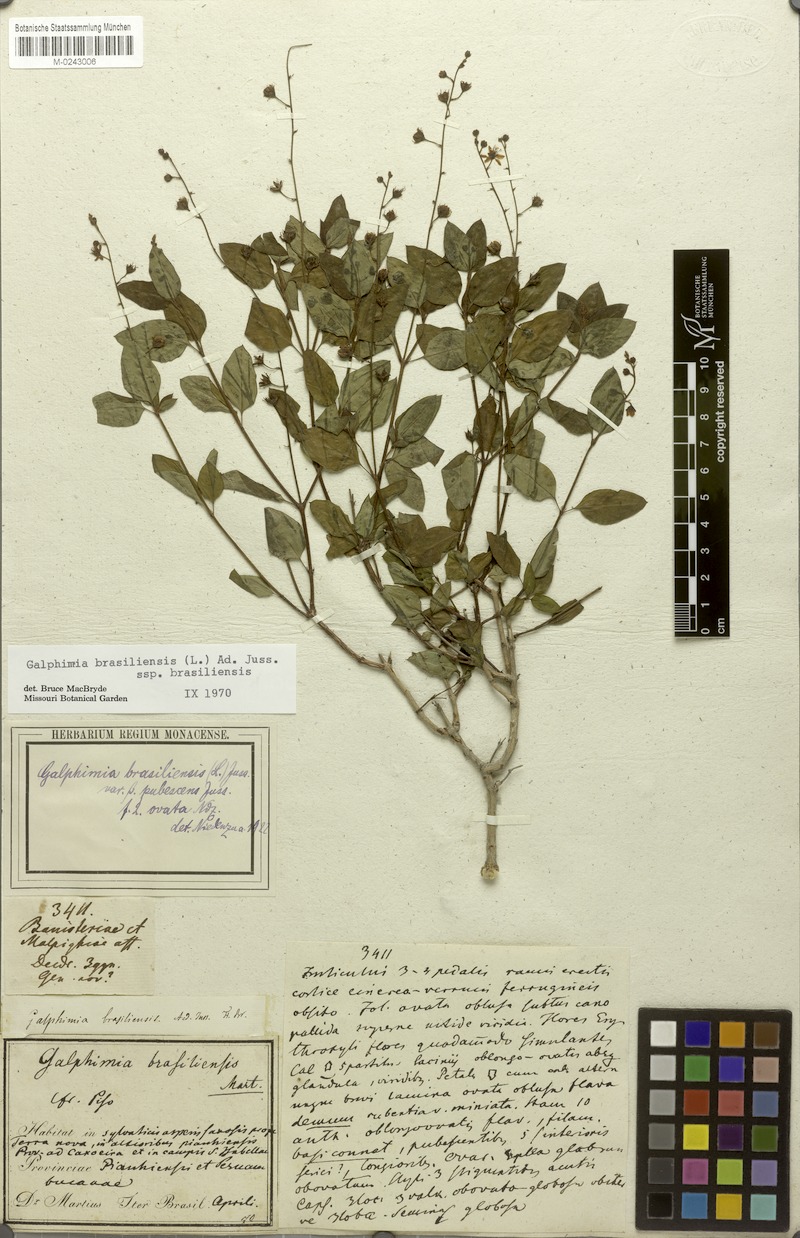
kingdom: Plantae
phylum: Tracheophyta
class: Magnoliopsida
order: Malpighiales
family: Malpighiaceae
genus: Galphimia
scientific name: Galphimia brasiliensis
